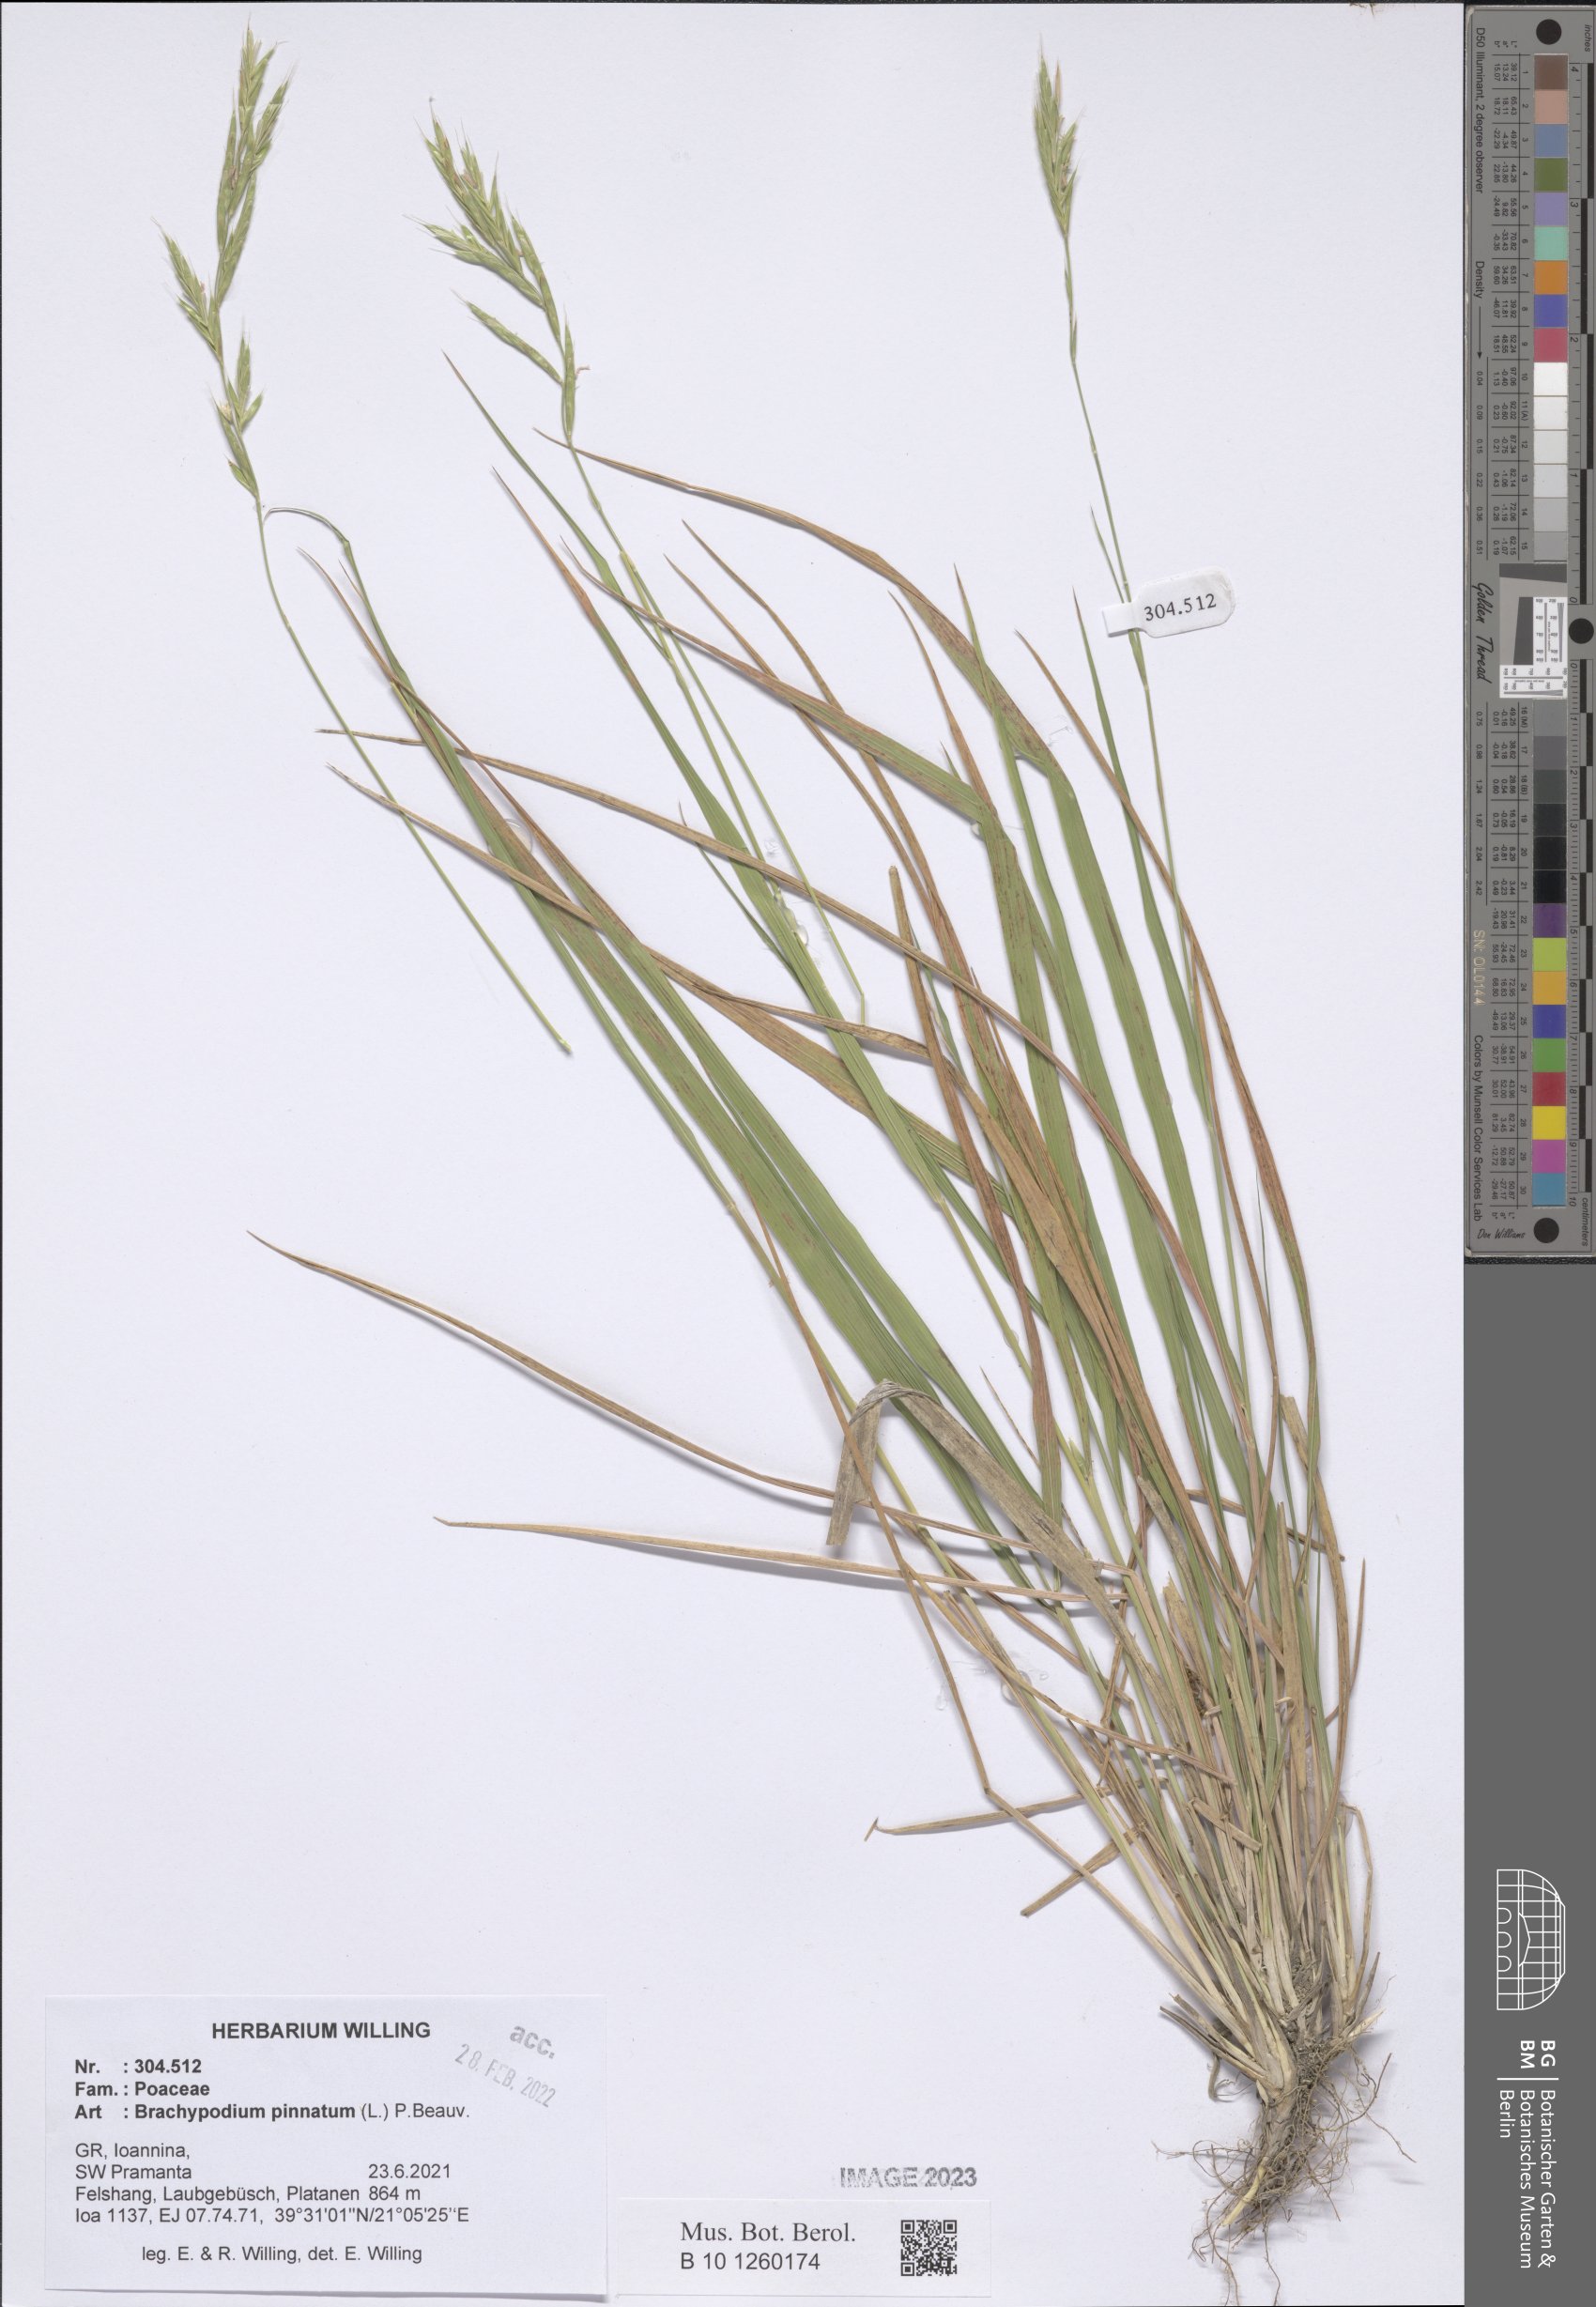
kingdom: Plantae
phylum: Tracheophyta
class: Liliopsida
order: Poales
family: Poaceae
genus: Brachypodium
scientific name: Brachypodium pinnatum
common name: Tor grass
